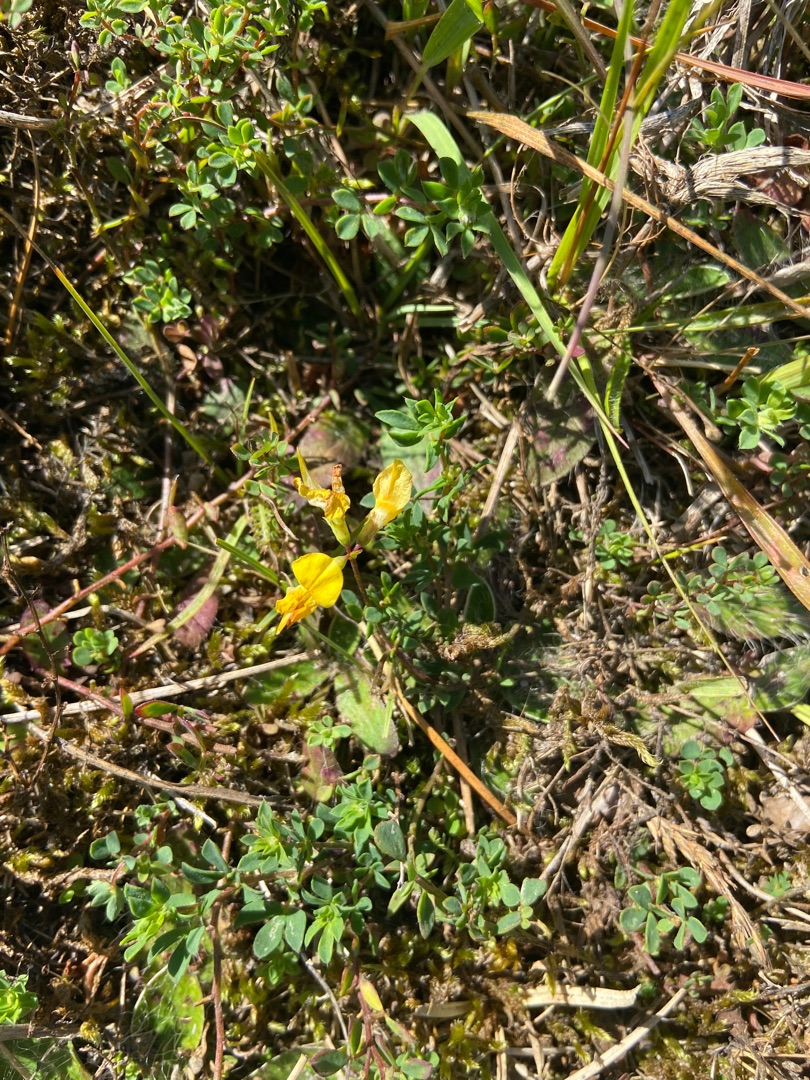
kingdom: Plantae
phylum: Tracheophyta
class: Magnoliopsida
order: Fabales
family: Fabaceae
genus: Lotus
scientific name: Lotus corniculatus
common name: Almindelig kællingetand
